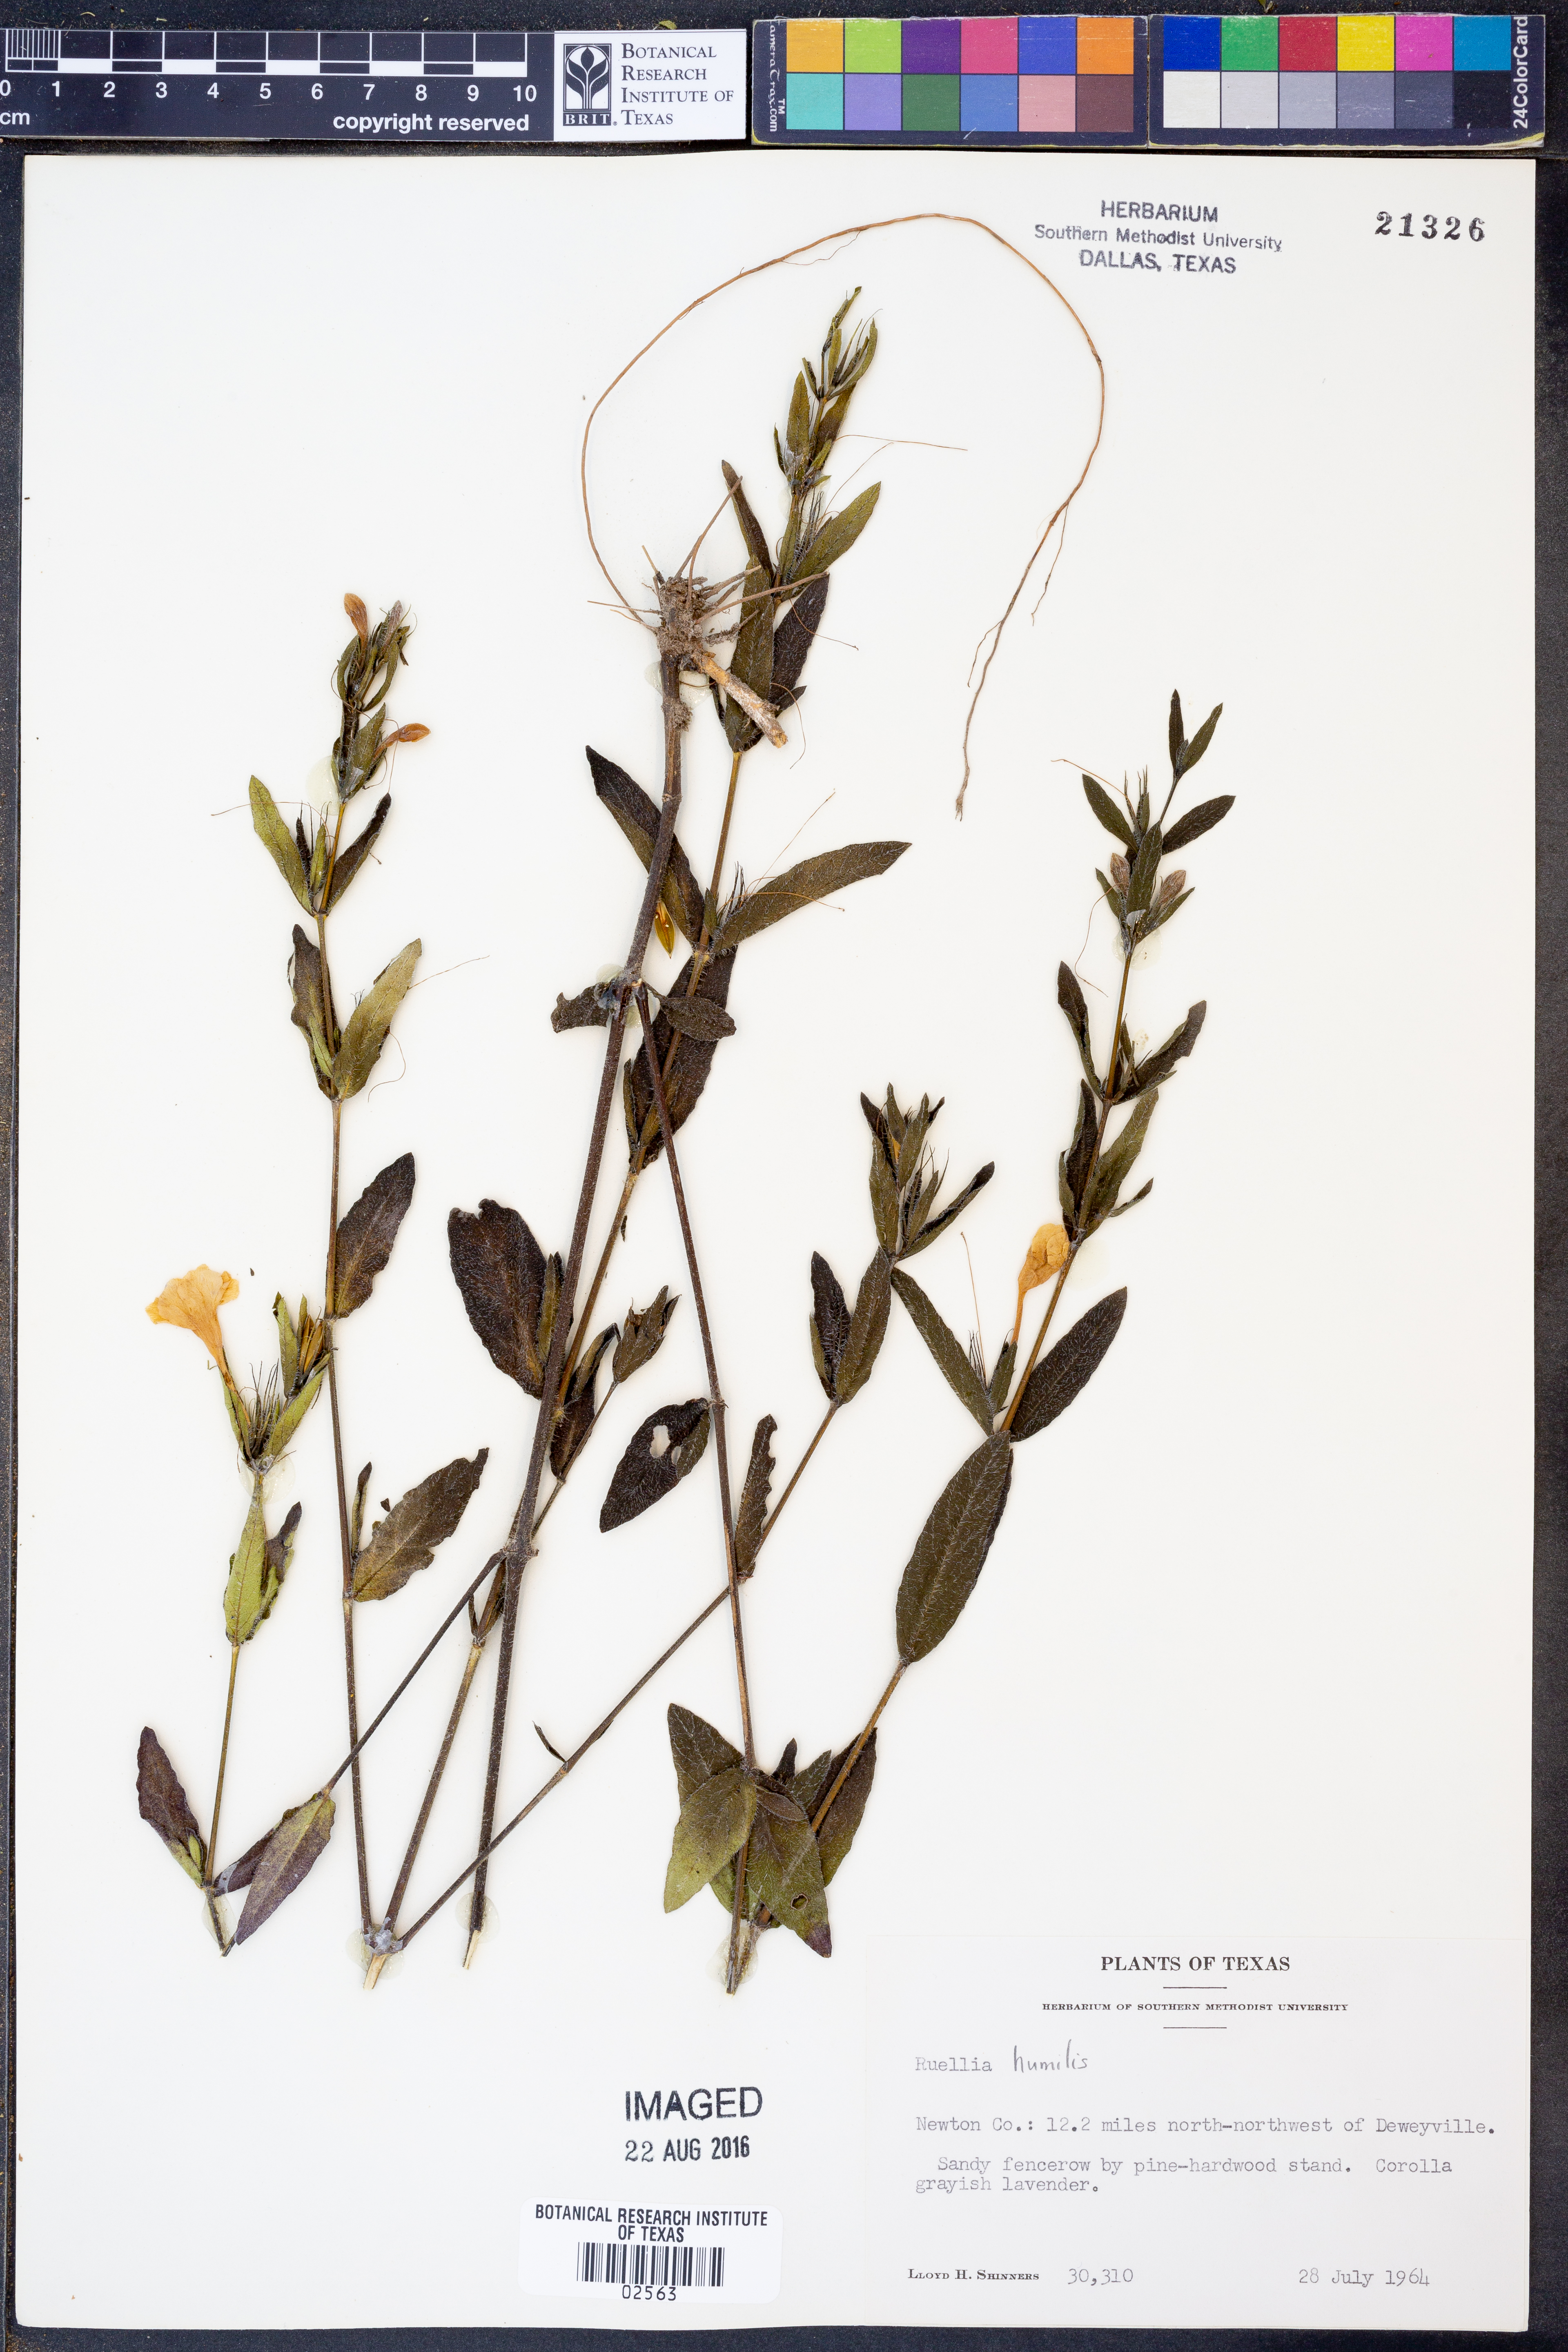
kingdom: Plantae
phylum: Tracheophyta
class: Magnoliopsida
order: Lamiales
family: Acanthaceae
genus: Ruellia
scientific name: Ruellia humilis
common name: Fringe-leaf ruellia
